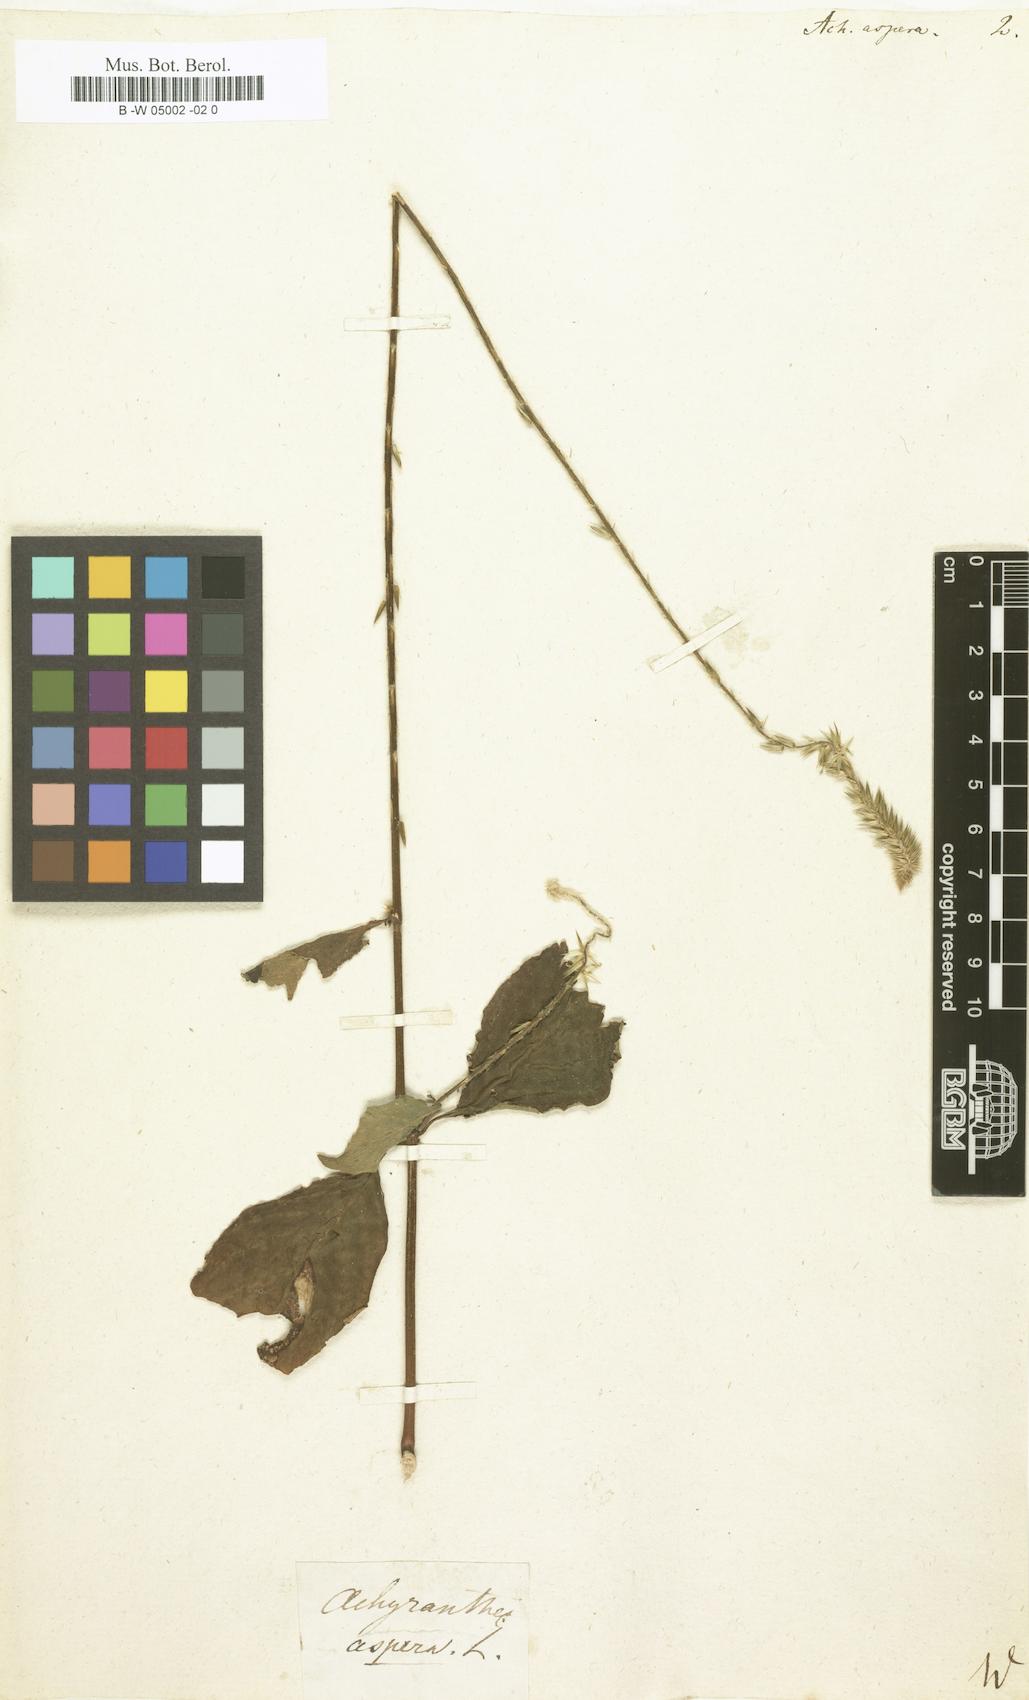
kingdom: Plantae
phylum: Tracheophyta
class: Magnoliopsida
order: Caryophyllales
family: Amaranthaceae
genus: Achyranthes
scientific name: Achyranthes aspera
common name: Devil's horsewhip
